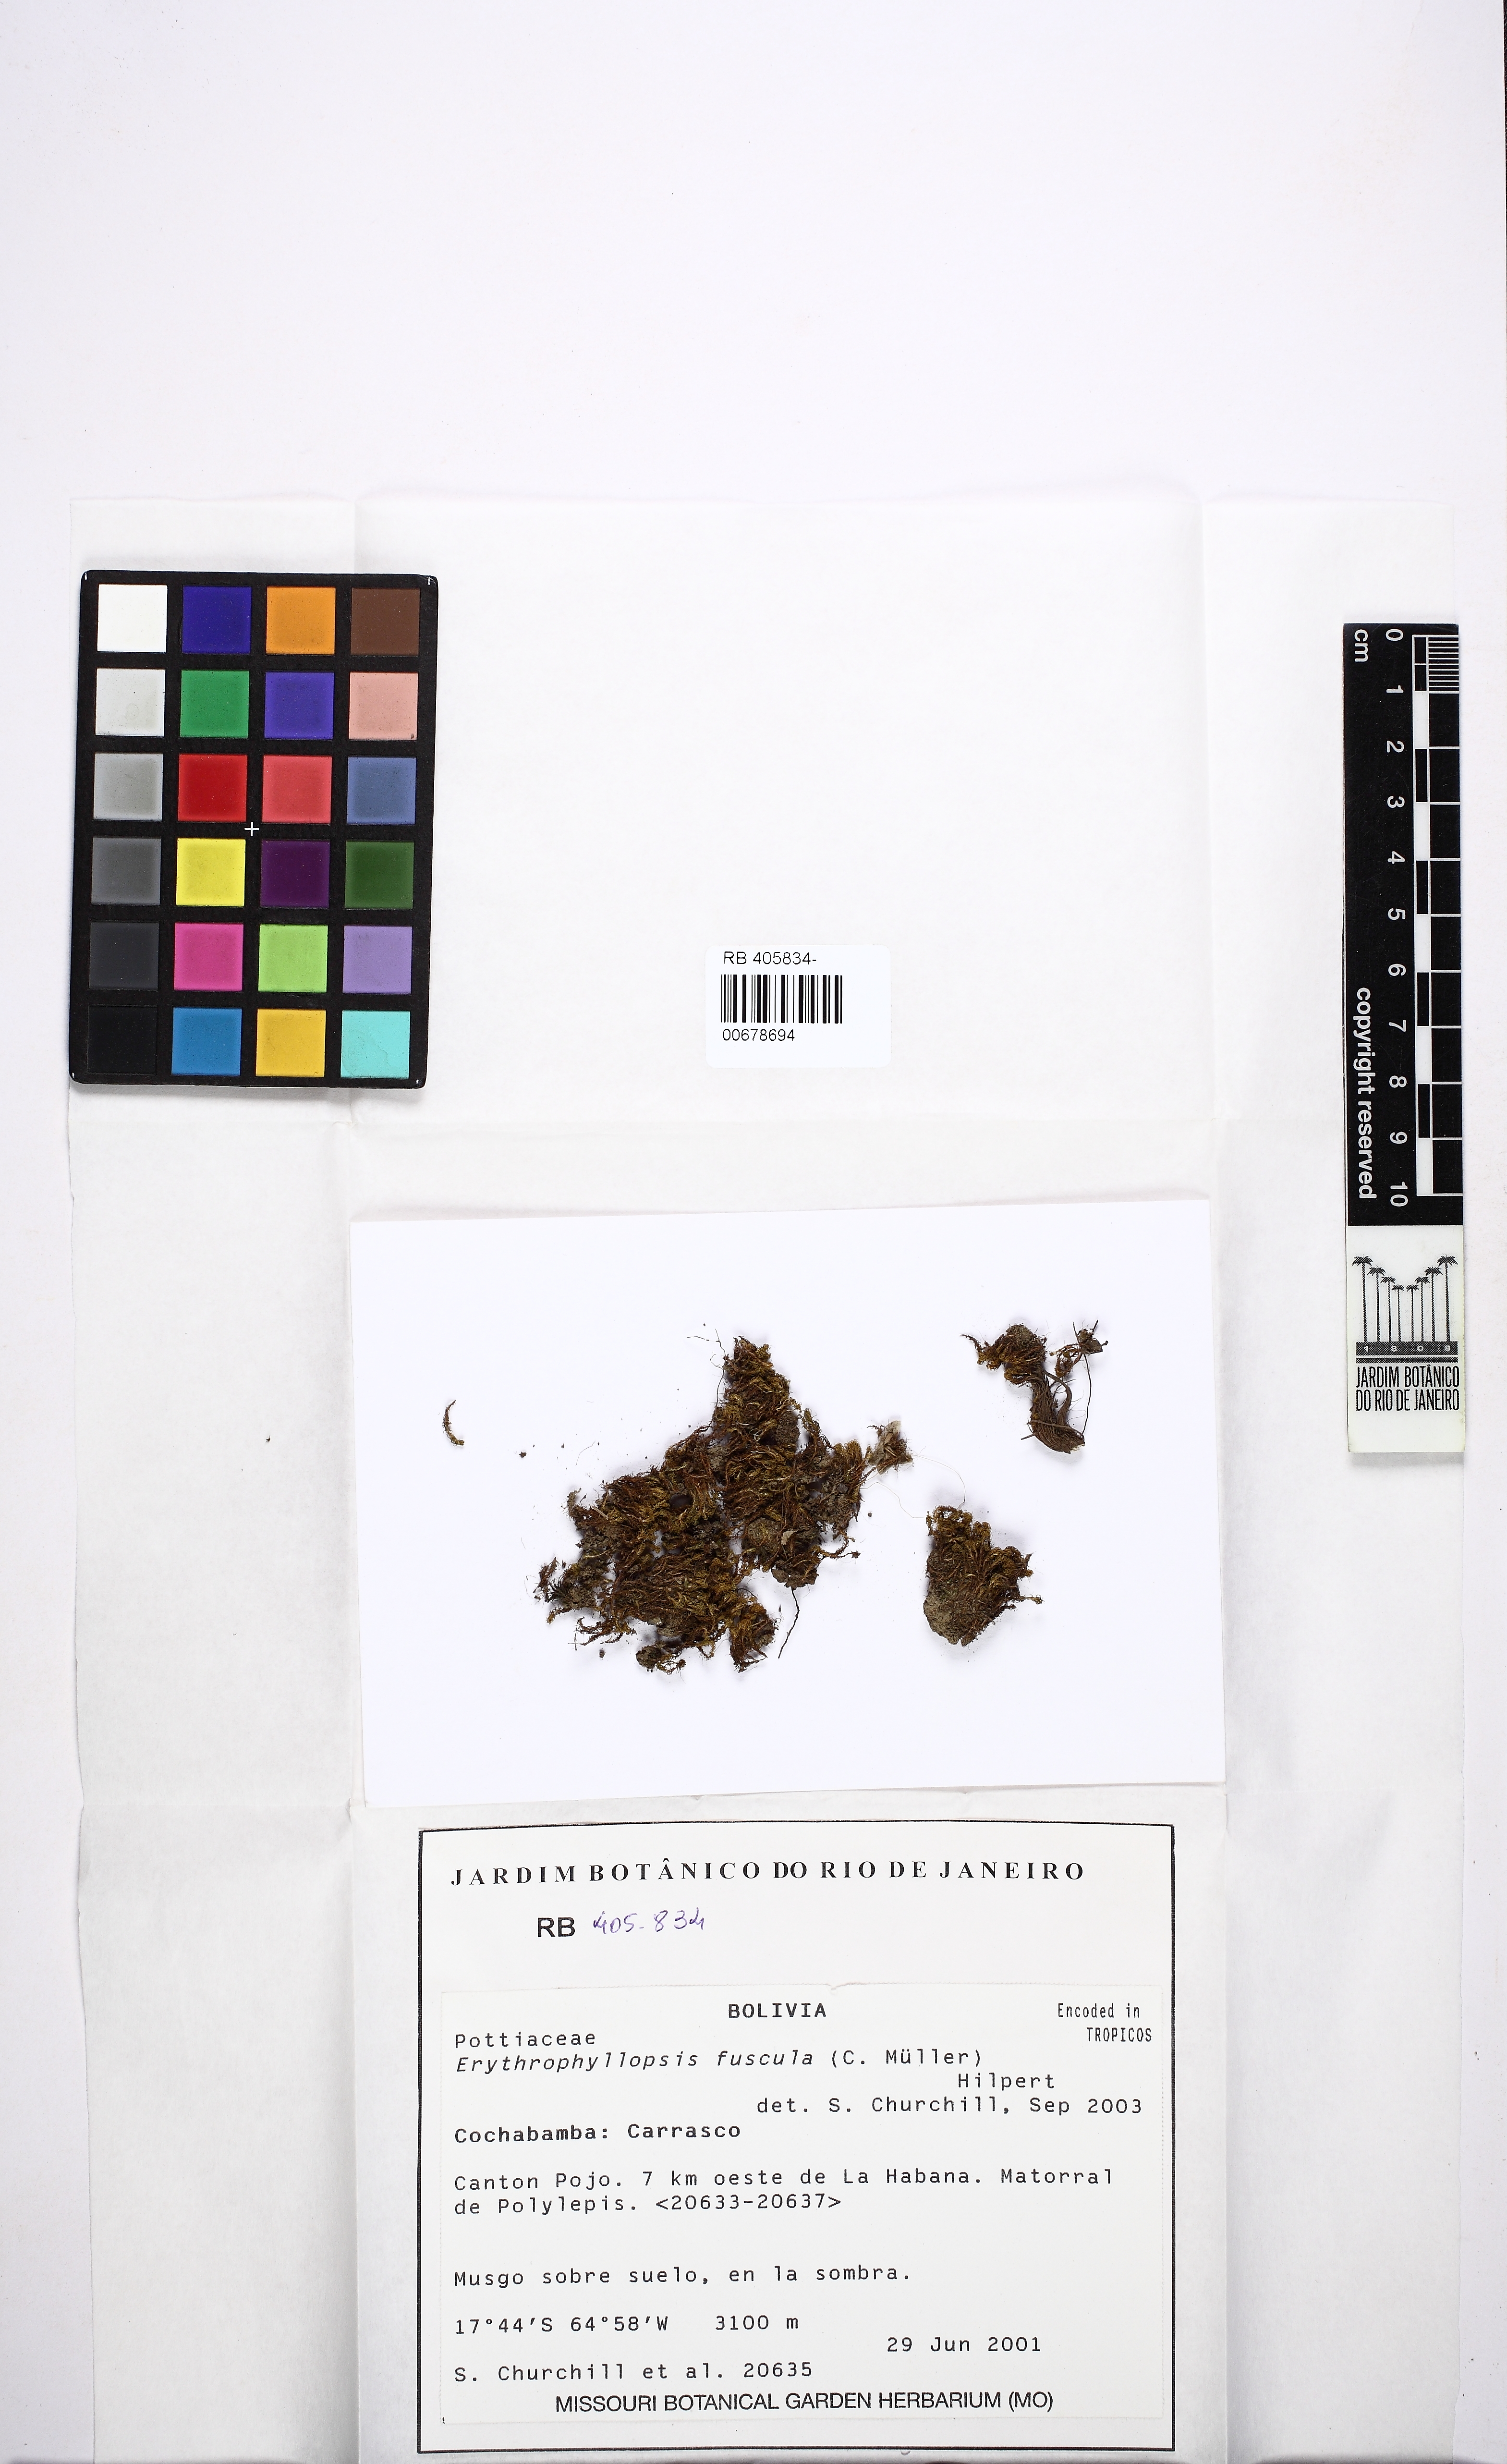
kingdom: Plantae
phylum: Bryophyta
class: Bryopsida
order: Pottiales
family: Pottiaceae
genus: Erythrophyllopsis
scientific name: Erythrophyllopsis andina
